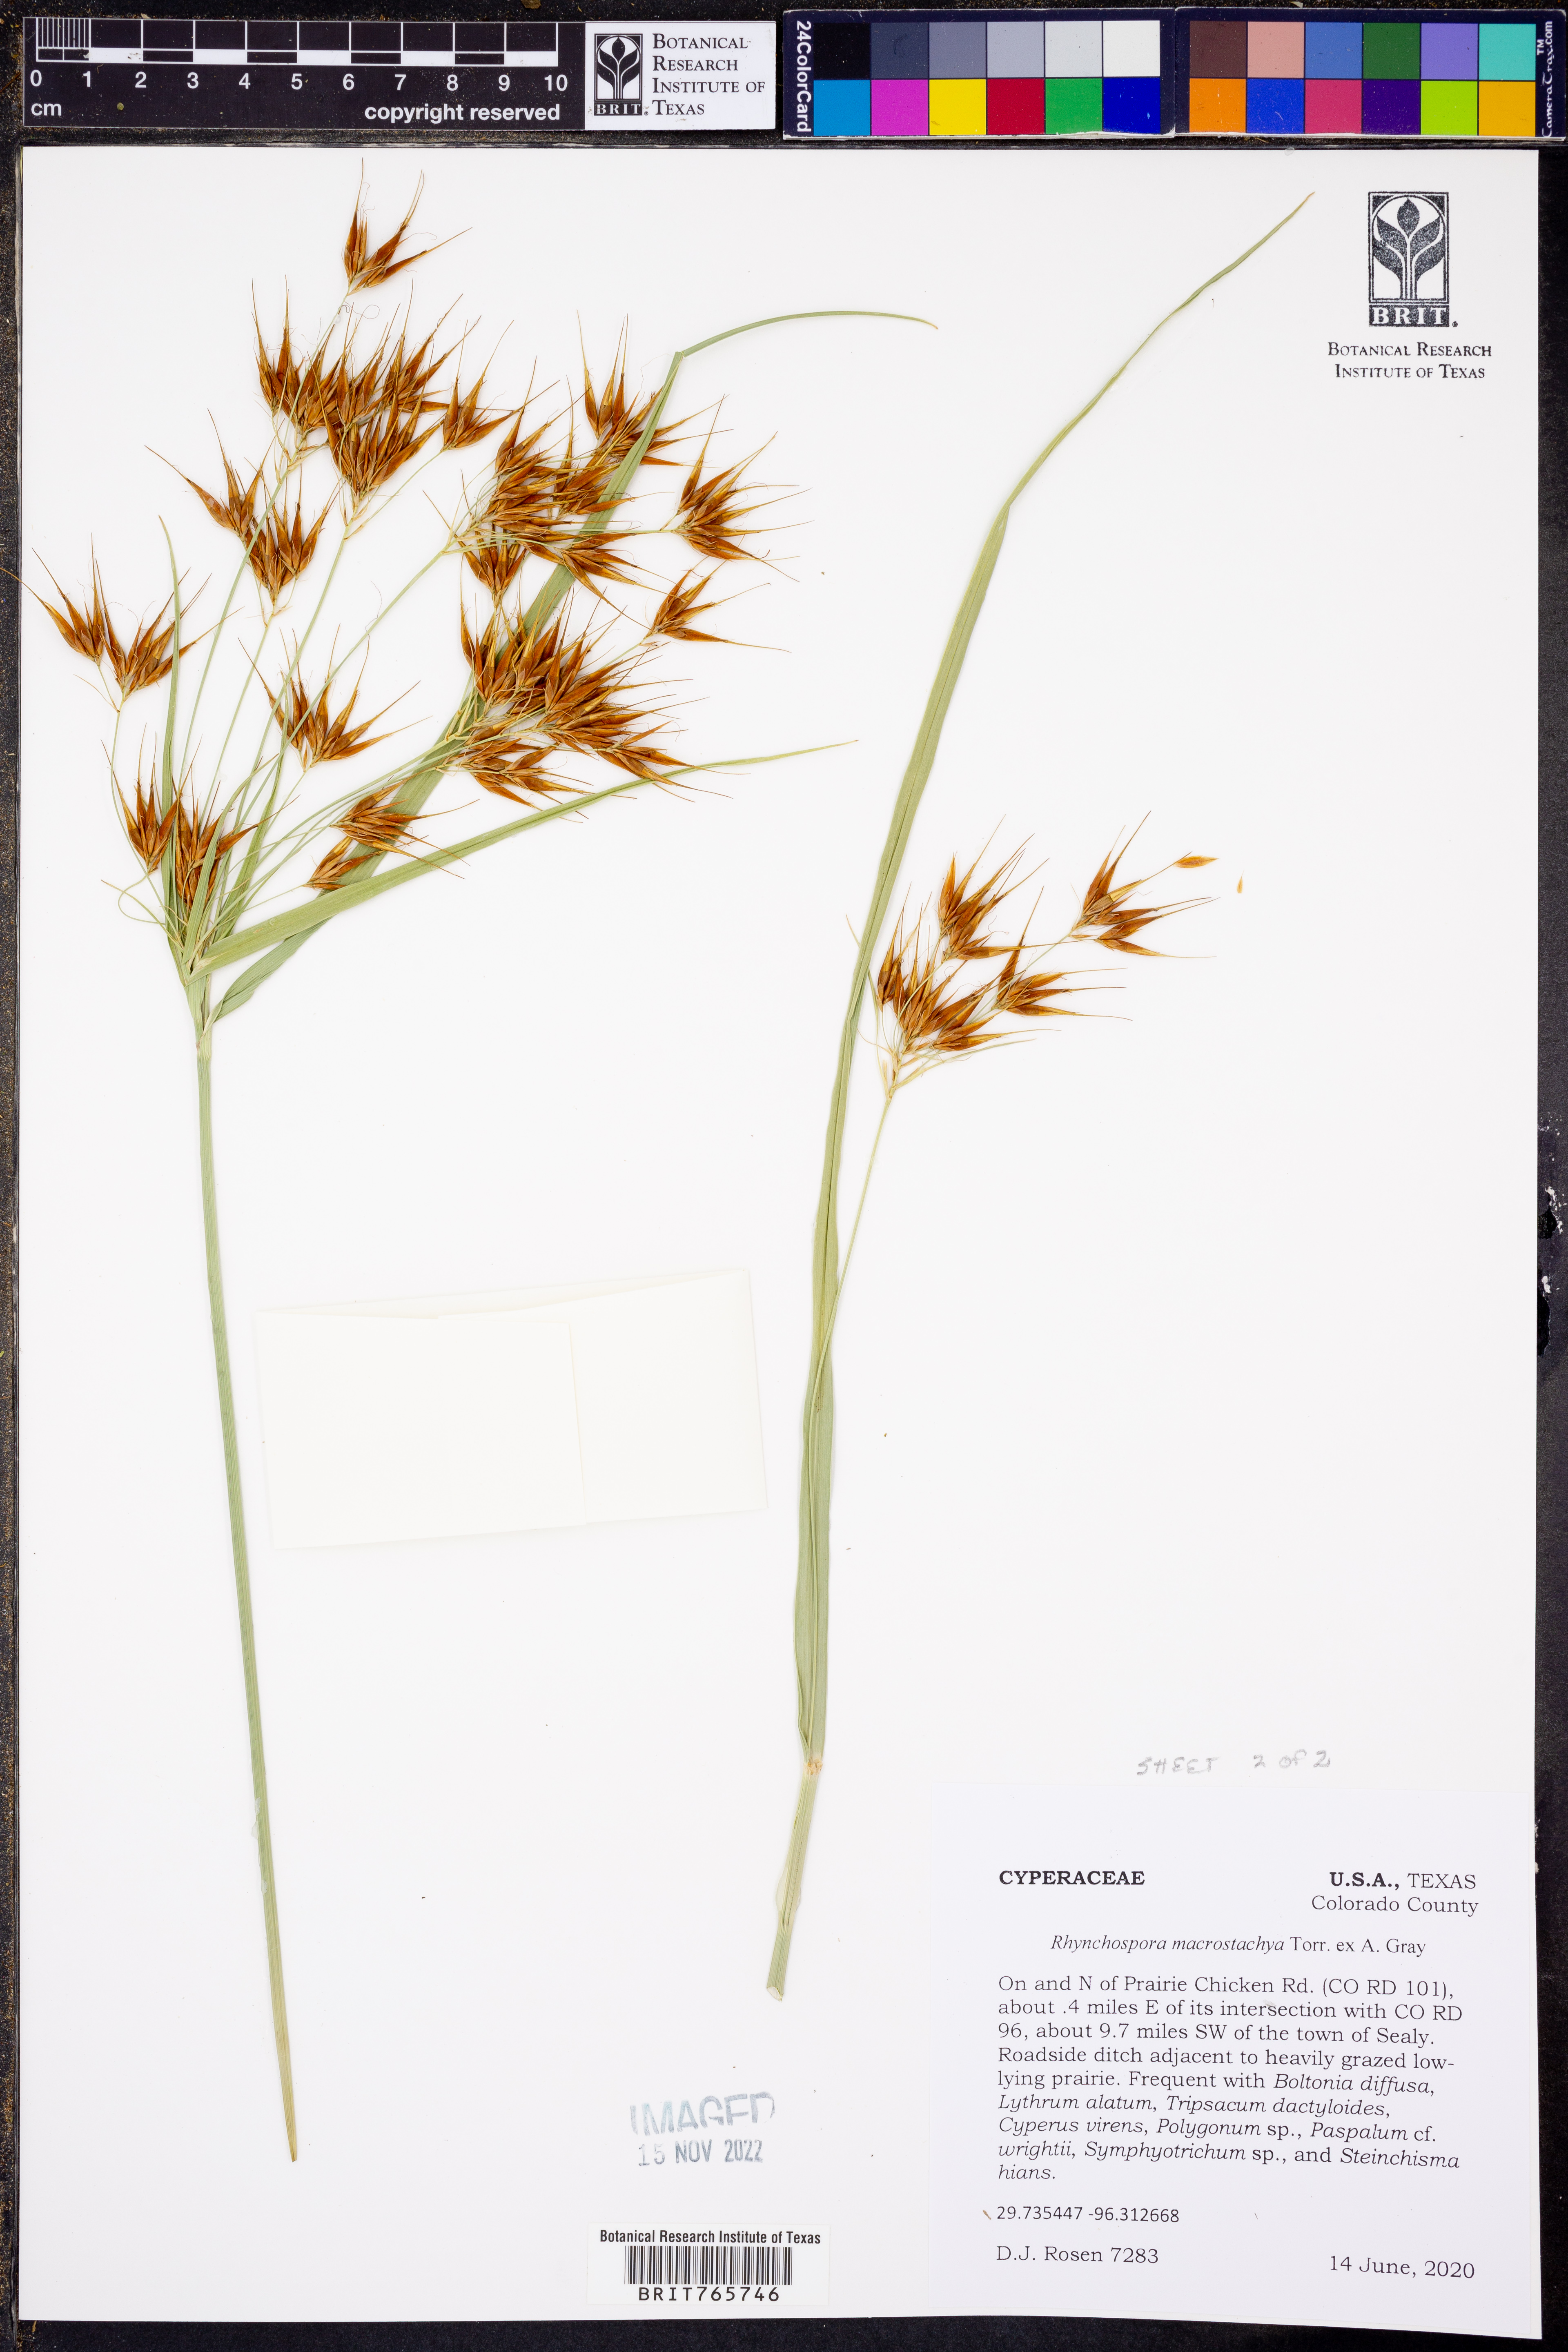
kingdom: Plantae
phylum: Tracheophyta
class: Liliopsida
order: Poales
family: Cyperaceae
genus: Rhynchospora
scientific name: Rhynchospora macrostachya
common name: Tall beakrush
